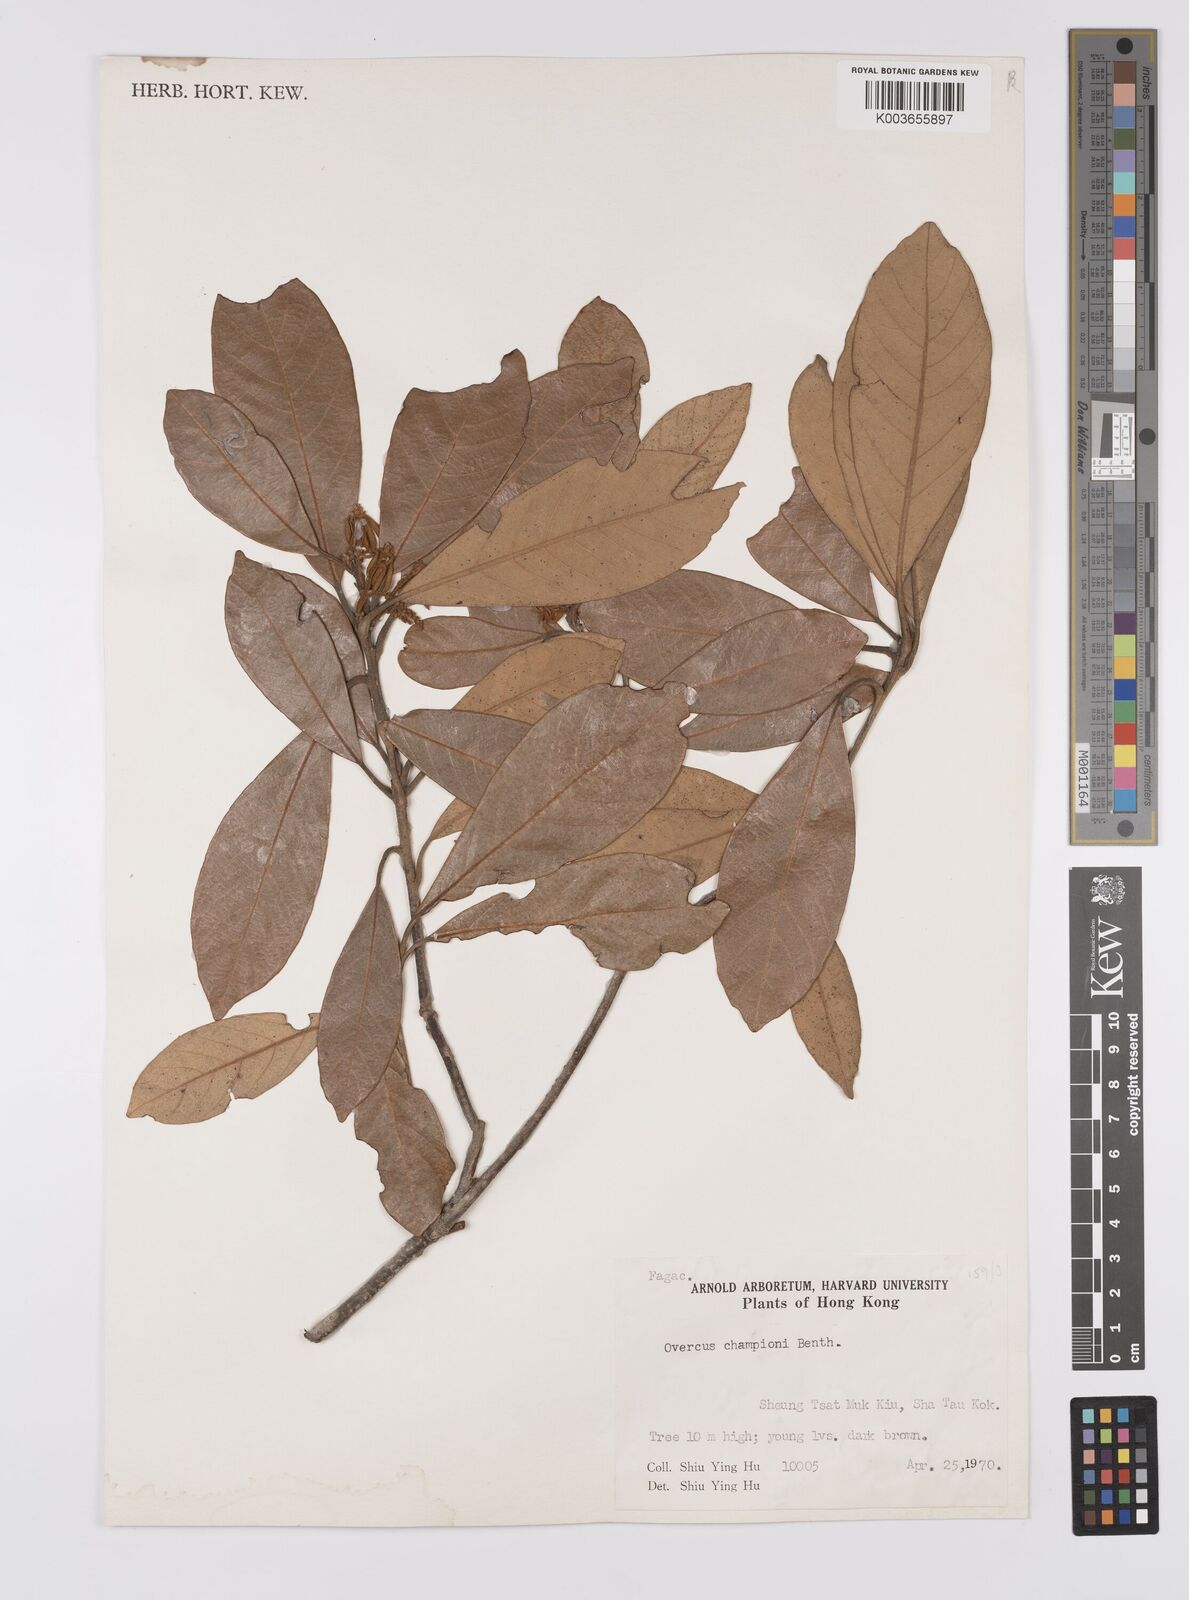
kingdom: Plantae
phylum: Tracheophyta
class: Magnoliopsida
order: Fagales
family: Fagaceae
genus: Quercus
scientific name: Quercus championii
